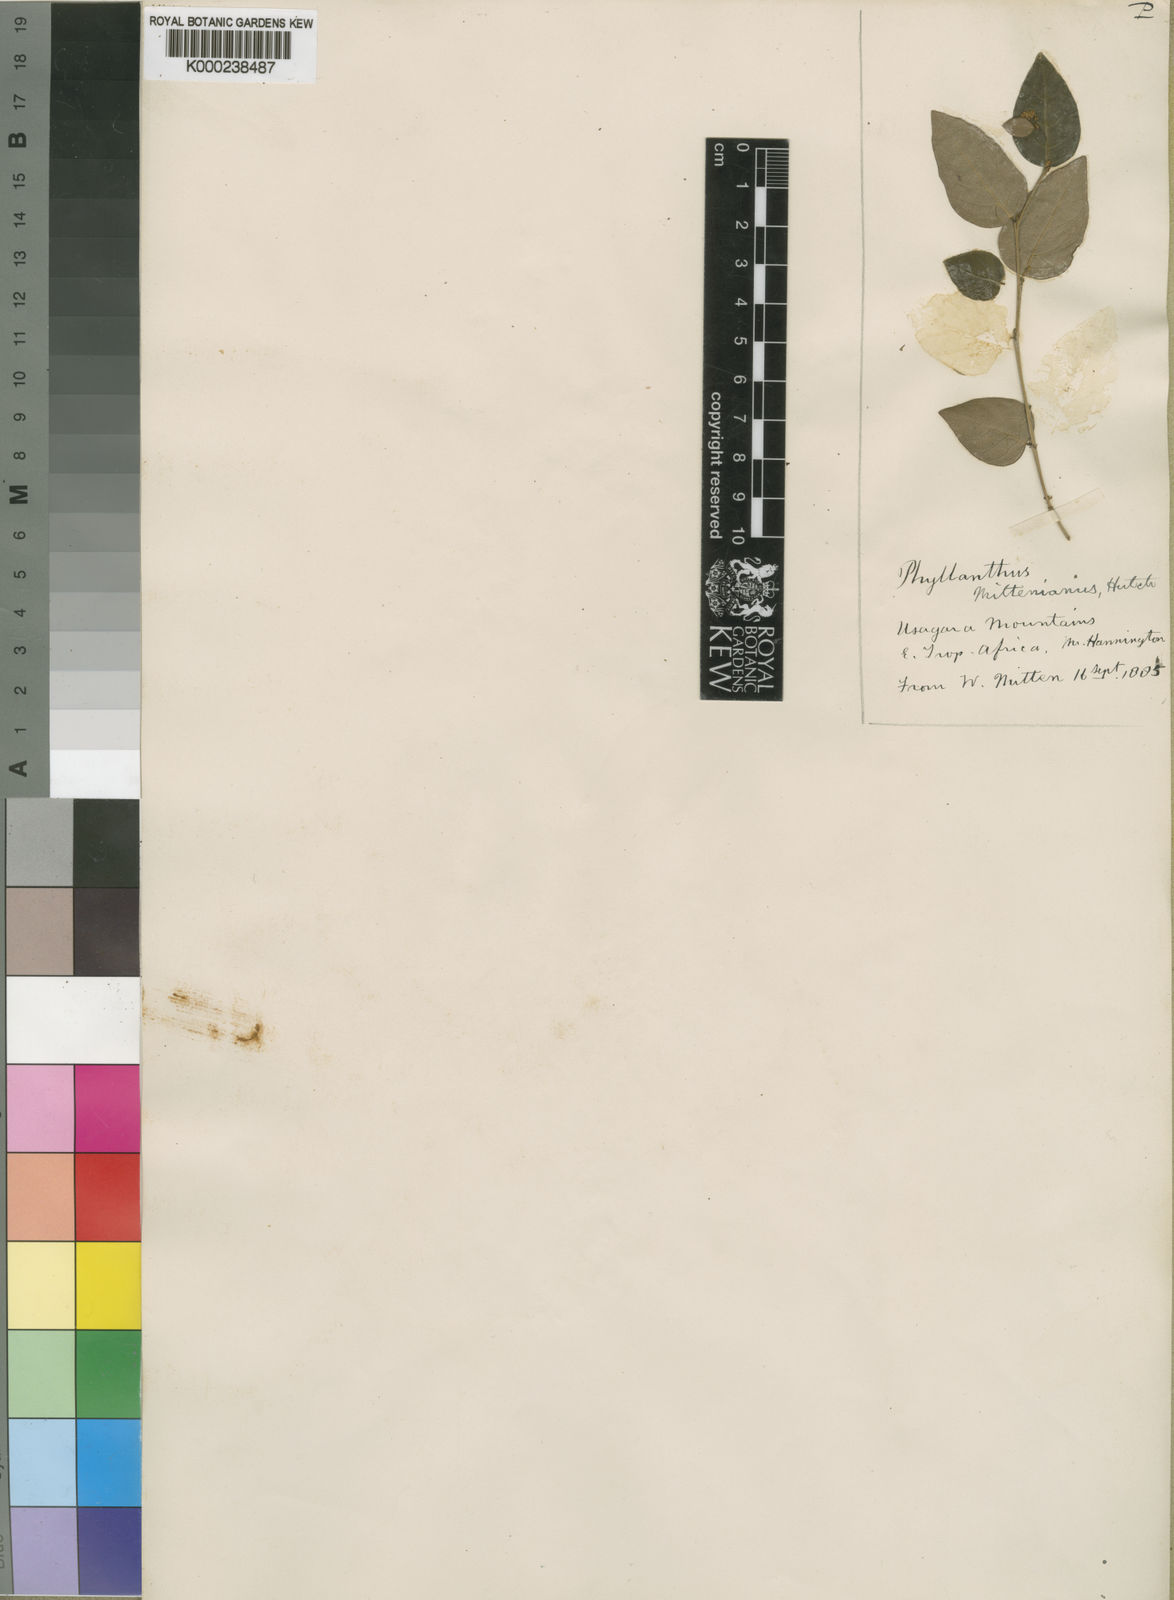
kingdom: Plantae
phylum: Tracheophyta
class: Magnoliopsida
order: Malpighiales
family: Phyllanthaceae
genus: Phyllanthus
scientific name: Phyllanthus mittenianus
